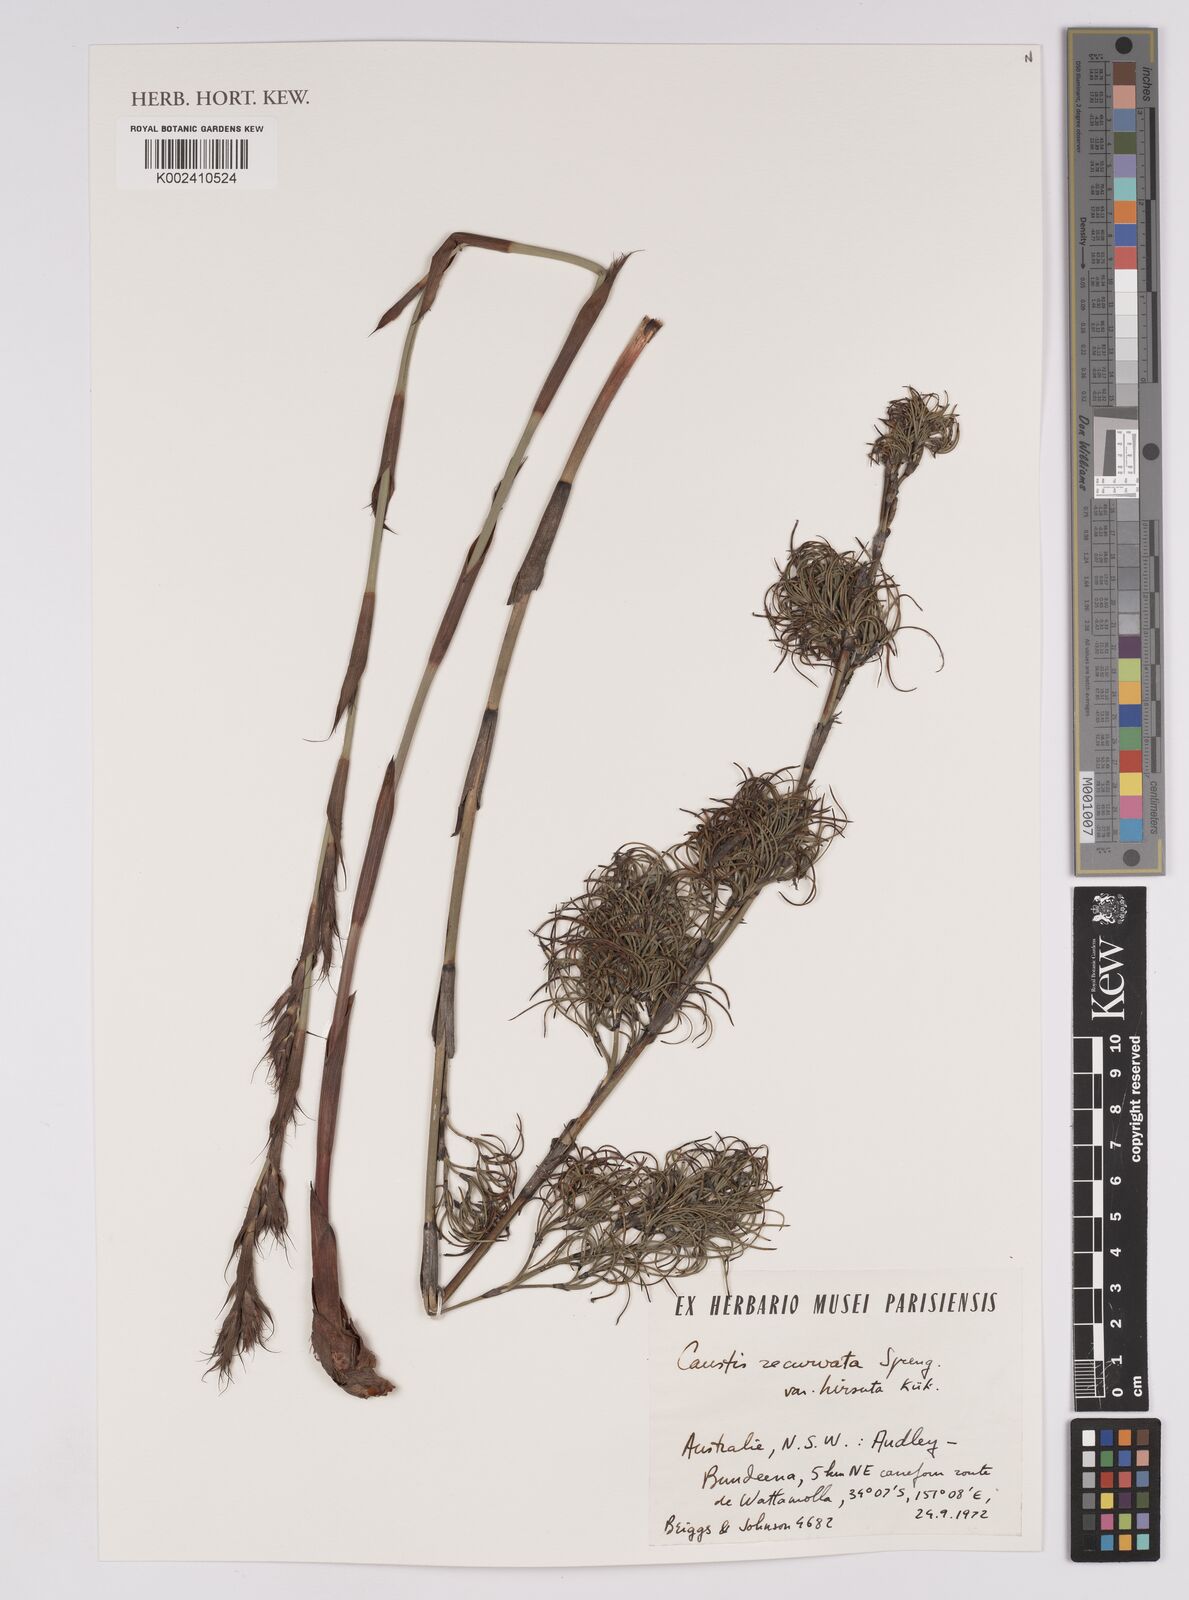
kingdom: Plantae
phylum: Tracheophyta
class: Liliopsida
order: Poales
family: Cyperaceae
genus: Caustis
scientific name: Caustis recurvata
